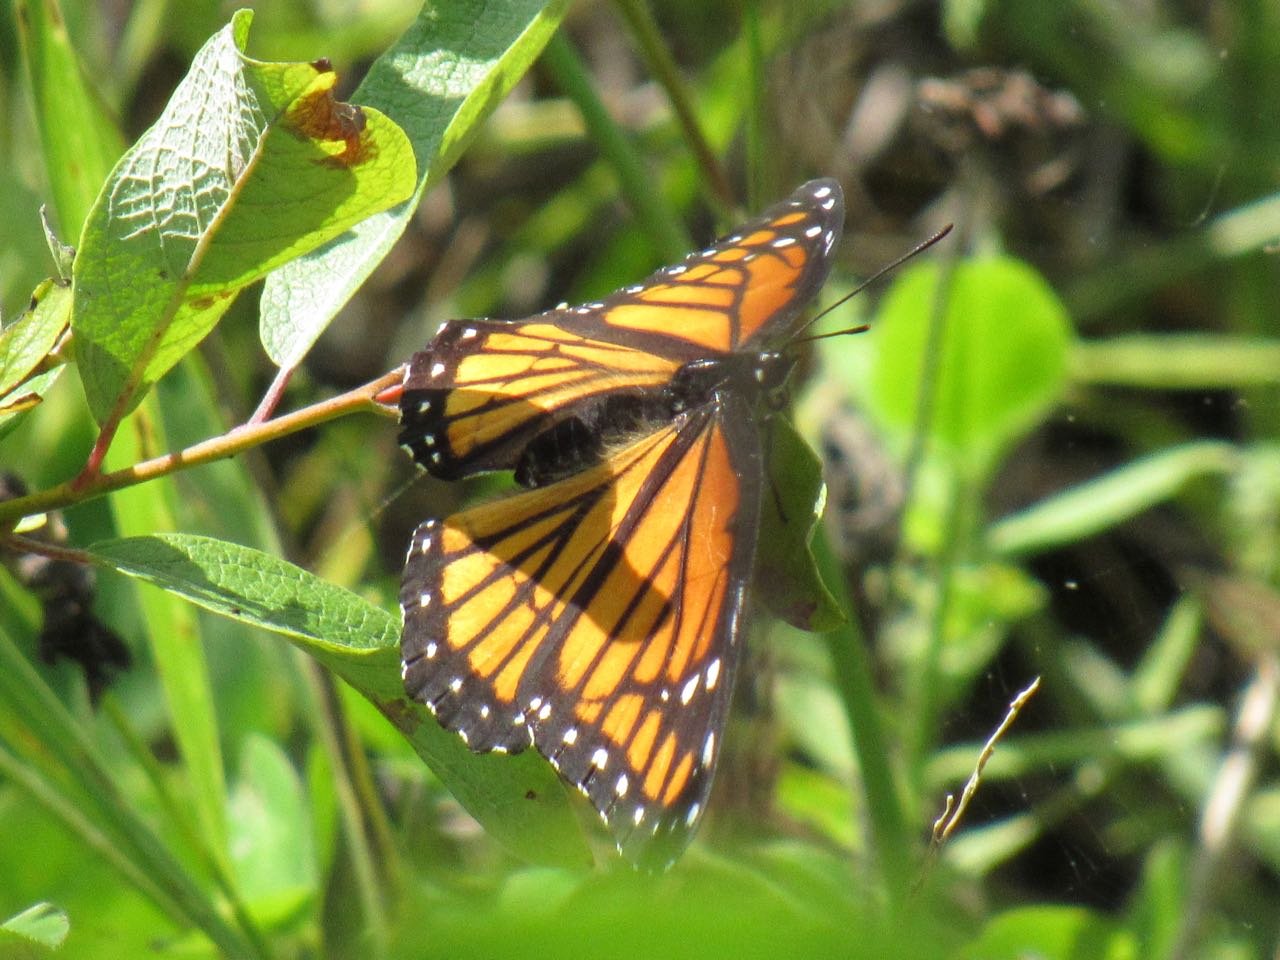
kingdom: Animalia
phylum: Arthropoda
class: Insecta
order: Lepidoptera
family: Nymphalidae
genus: Limenitis
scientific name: Limenitis archippus
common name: Viceroy
